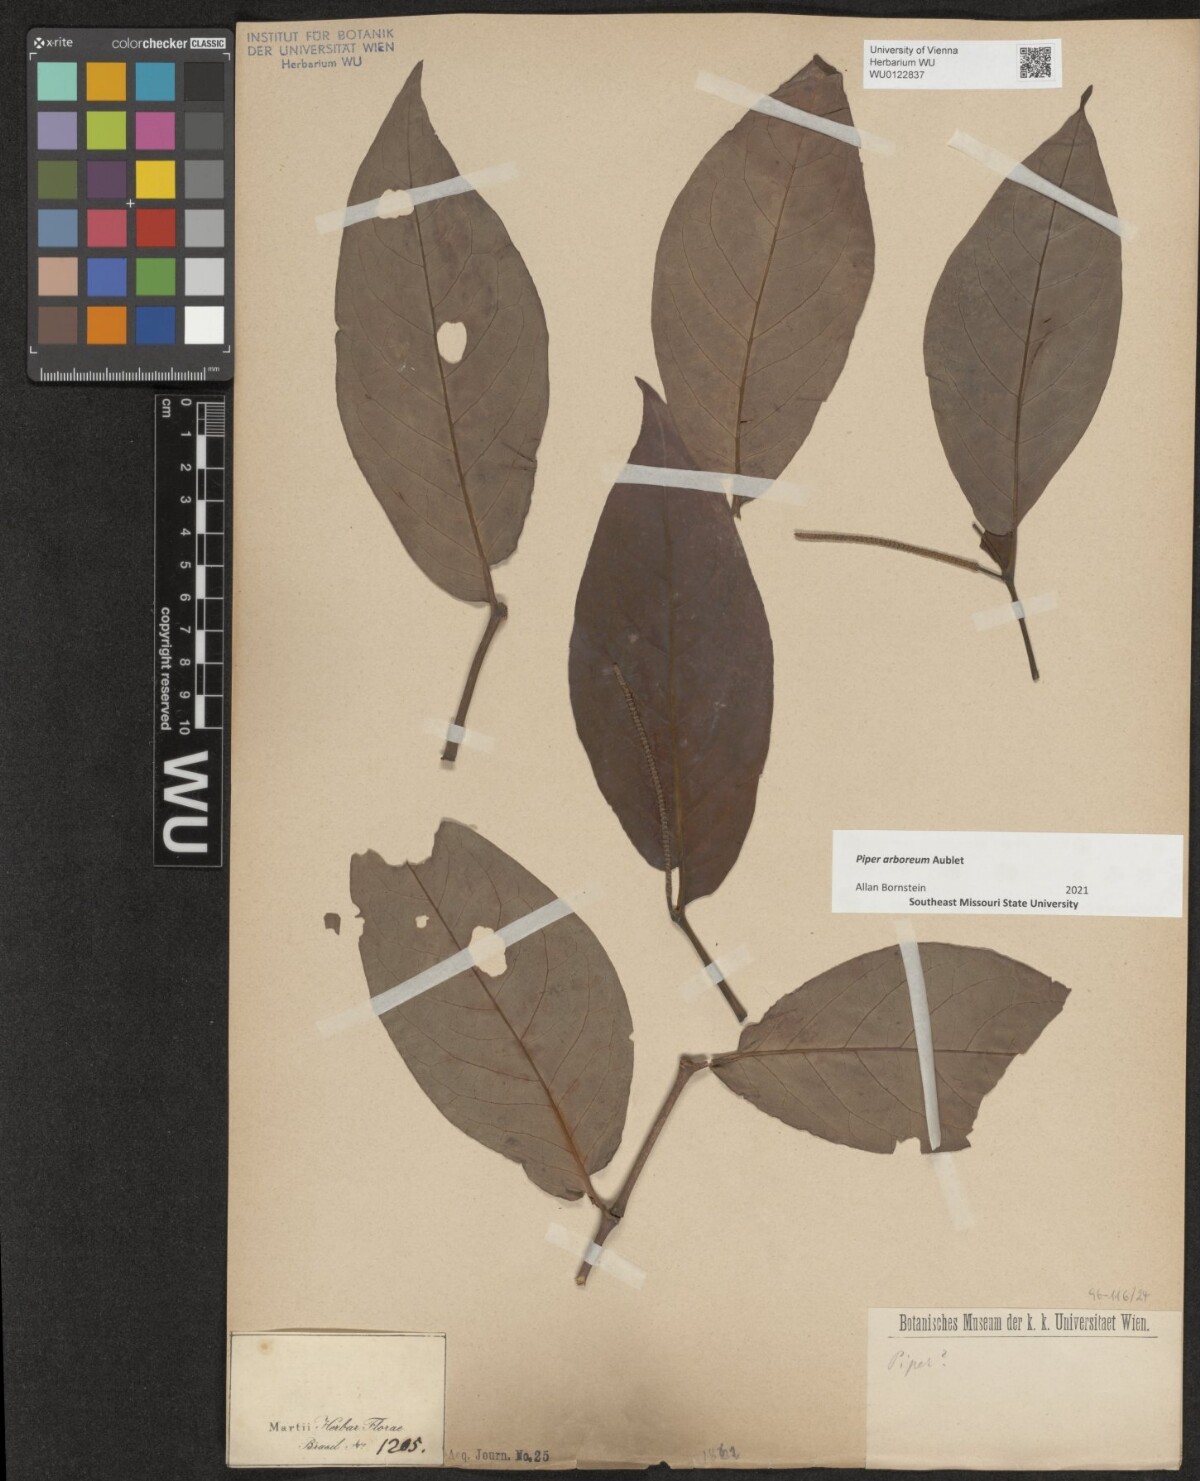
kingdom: Plantae
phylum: Tracheophyta
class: Magnoliopsida
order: Piperales
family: Piperaceae
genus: Piper
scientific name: Piper arboreum
